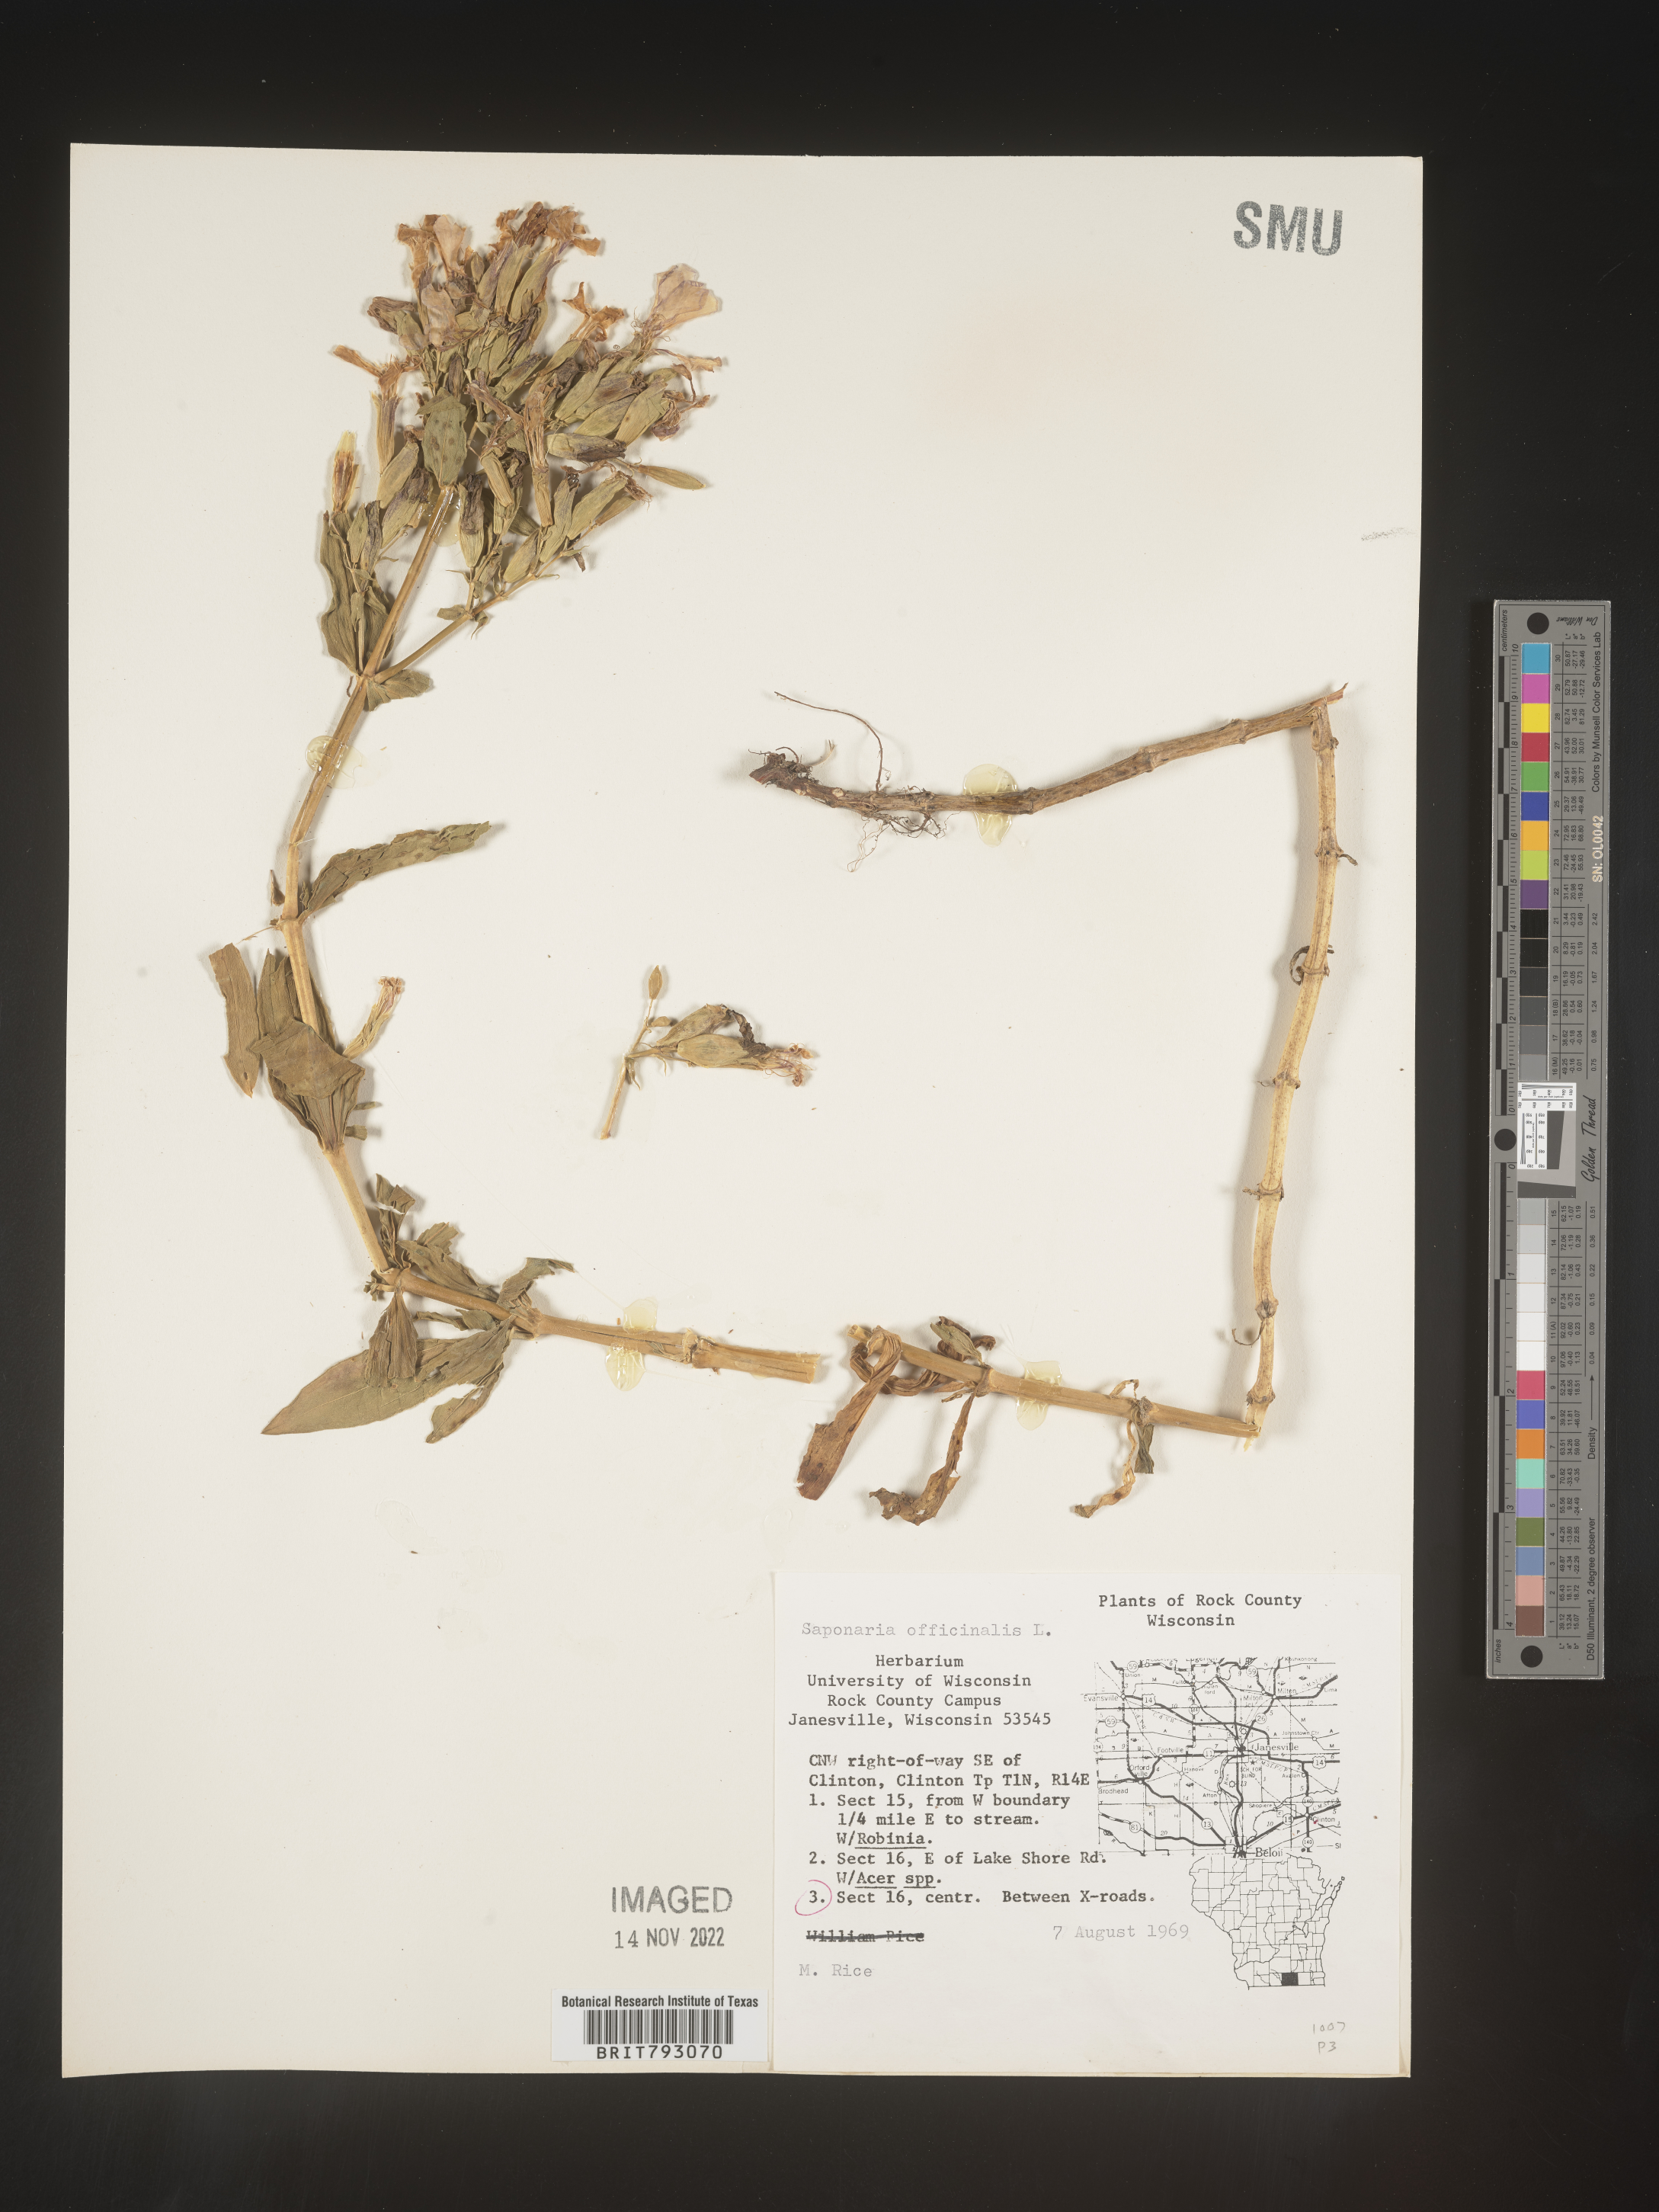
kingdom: Plantae
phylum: Tracheophyta
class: Magnoliopsida
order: Caryophyllales
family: Caryophyllaceae
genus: Saponaria
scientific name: Saponaria officinalis
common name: Soapwort
